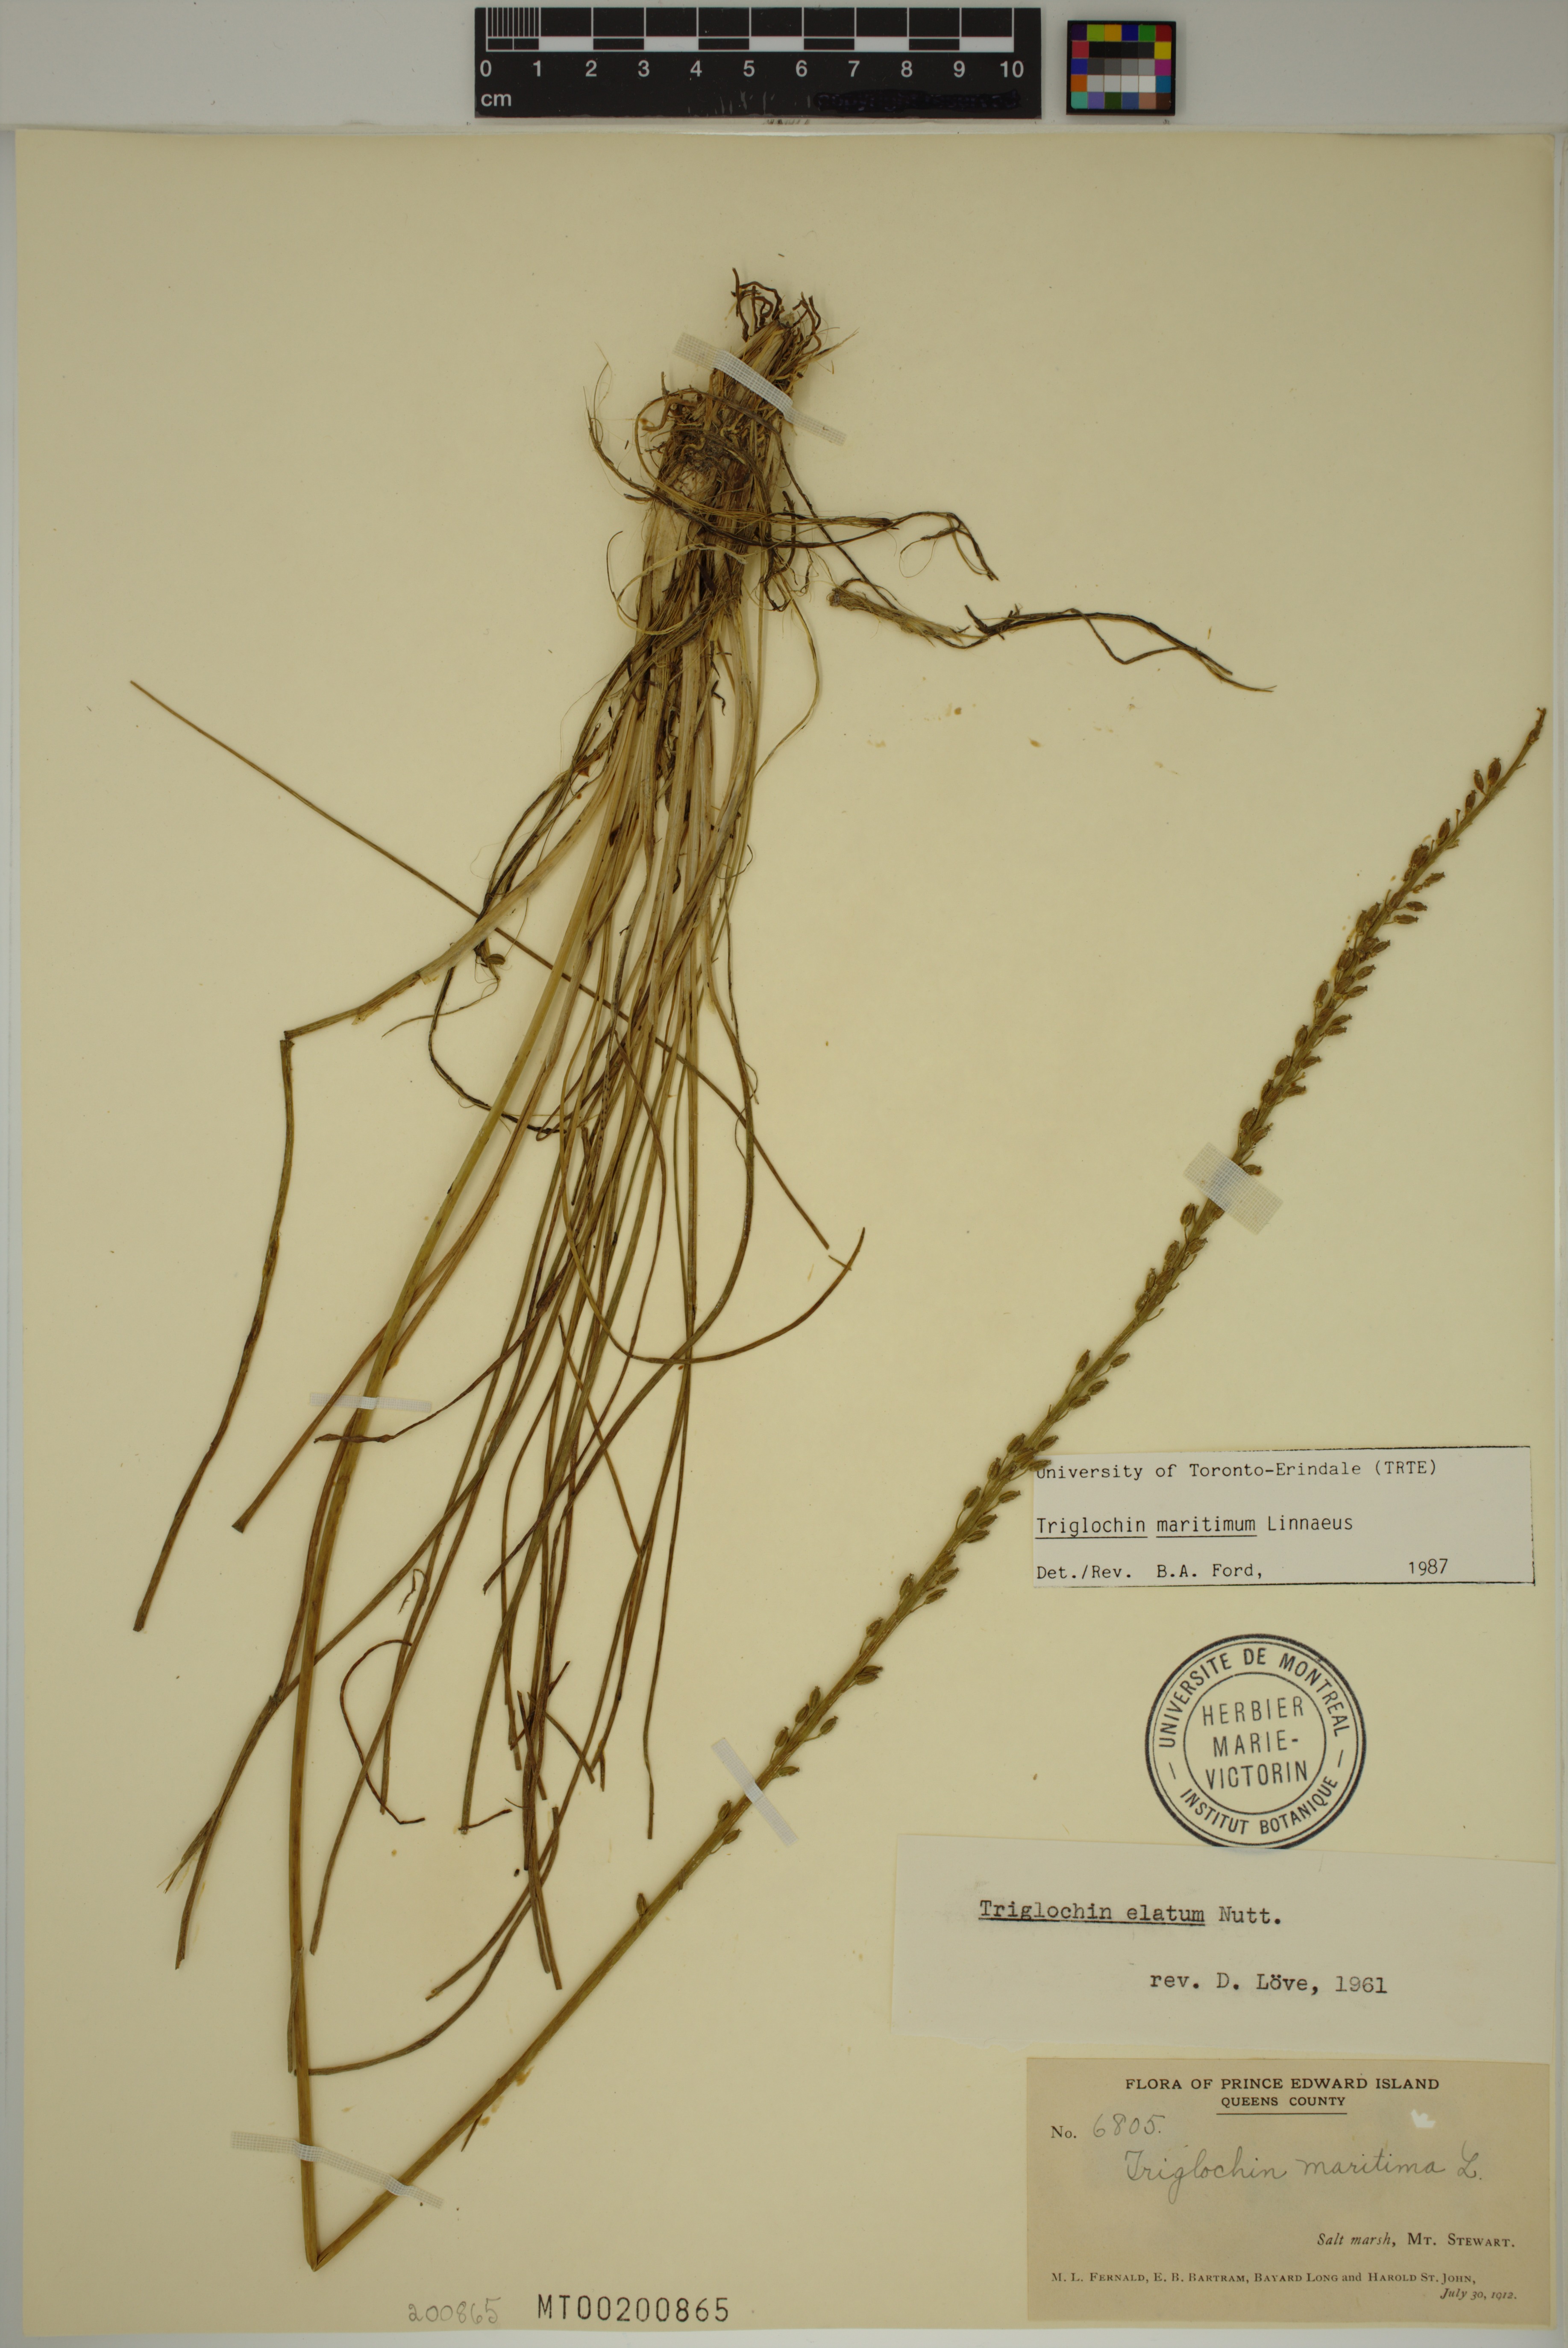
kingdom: Plantae
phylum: Tracheophyta
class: Liliopsida
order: Alismatales
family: Juncaginaceae
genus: Triglochin
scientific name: Triglochin maritima
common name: Sea arrowgrass
